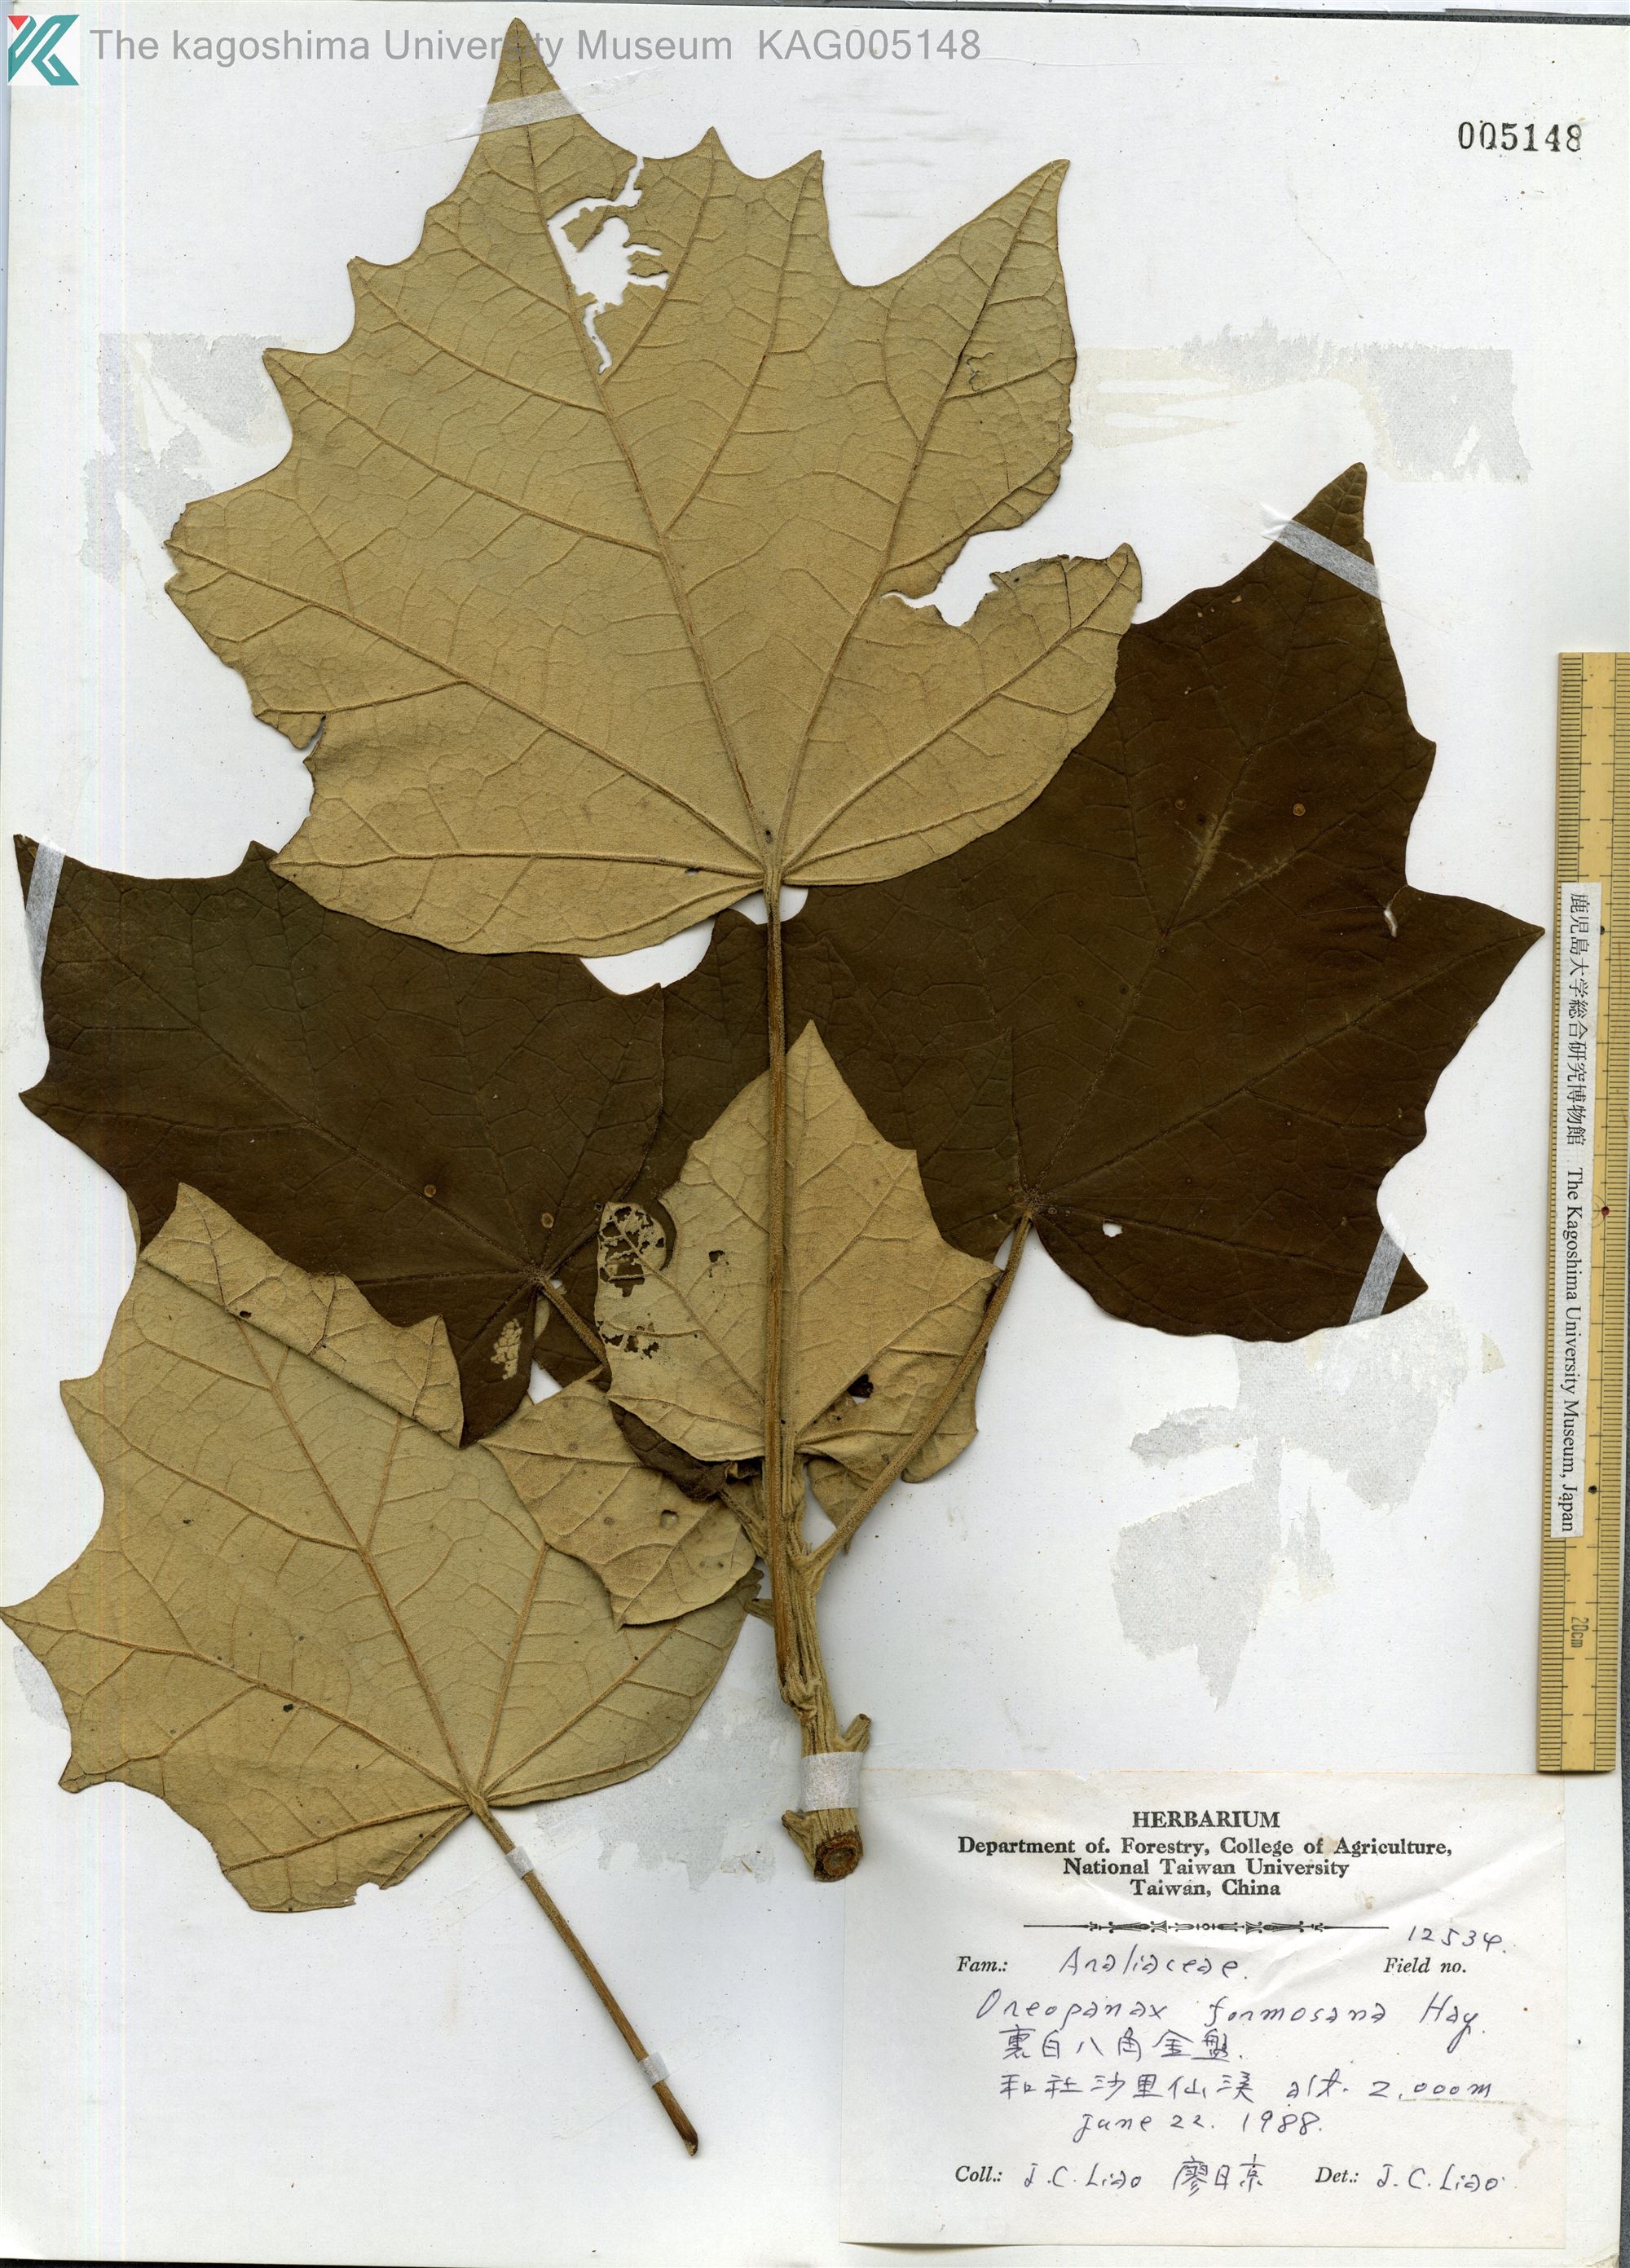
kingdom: Plantae
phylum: Tracheophyta
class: Magnoliopsida
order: Apiales
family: Araliaceae
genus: Sinopanax
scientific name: Sinopanax formosanus
